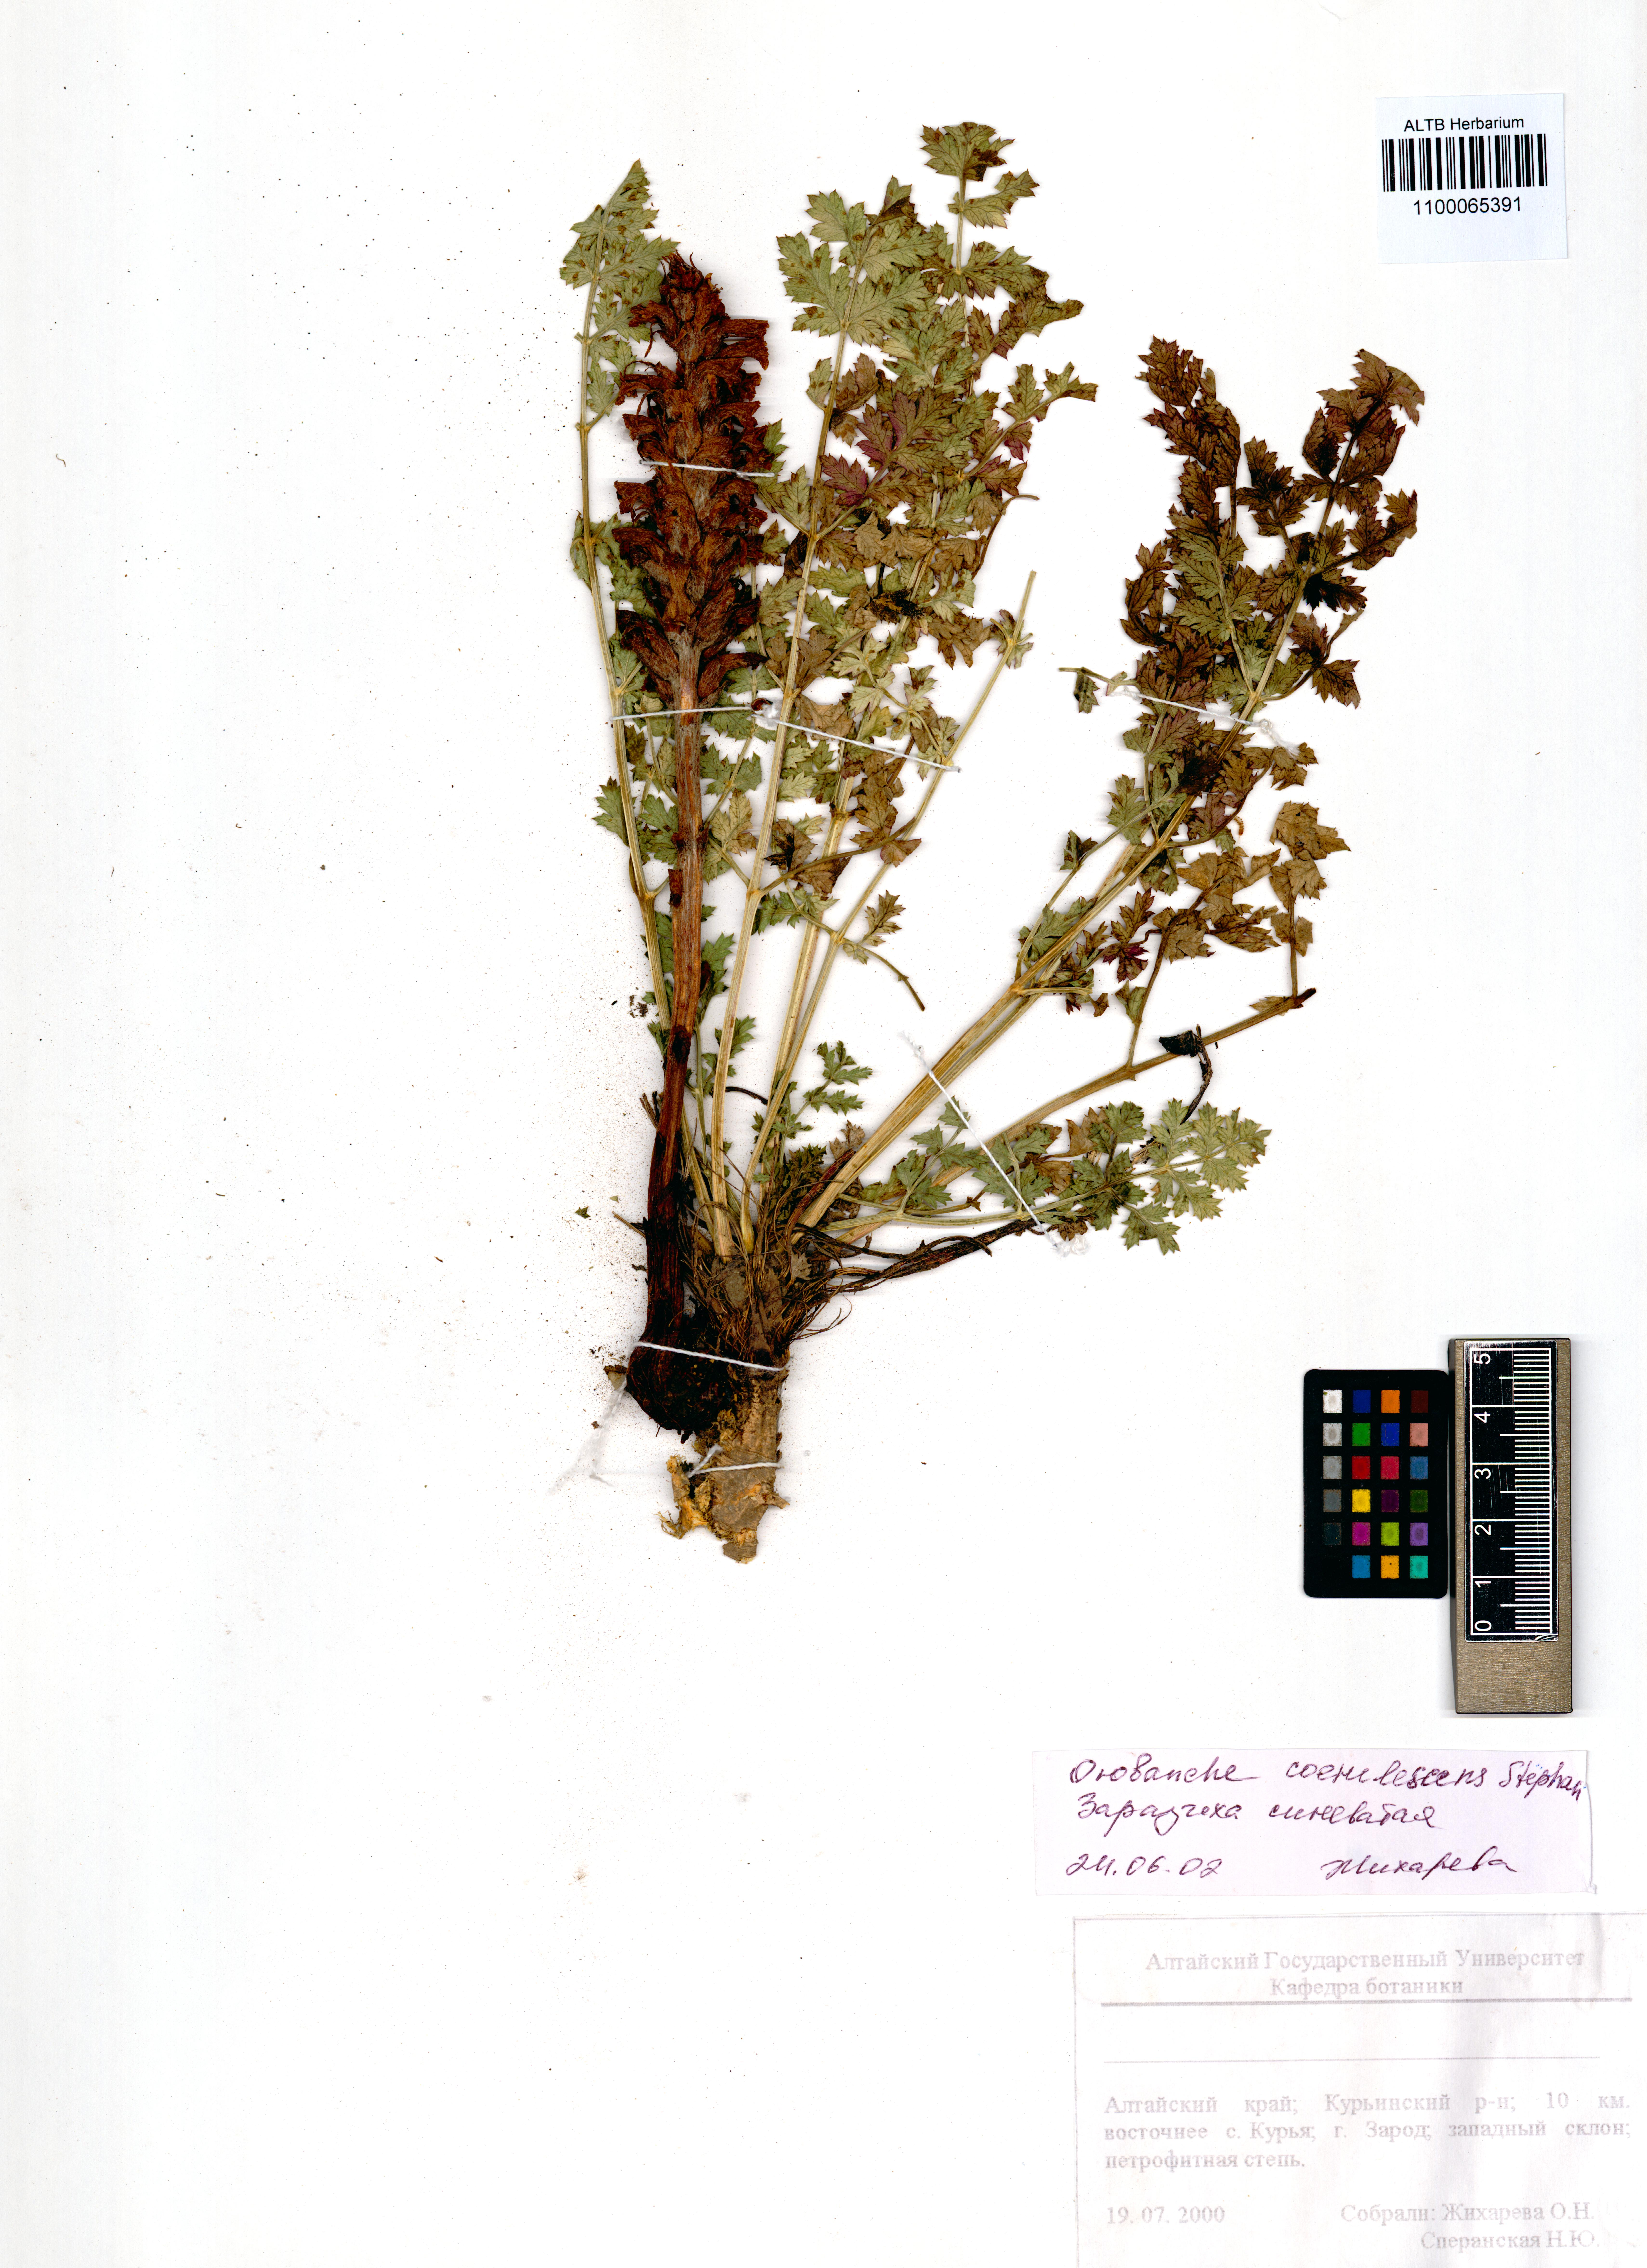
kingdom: Plantae
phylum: Tracheophyta
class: Magnoliopsida
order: Lamiales
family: Orobanchaceae
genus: Orobanche
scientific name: Orobanche coerulescens
